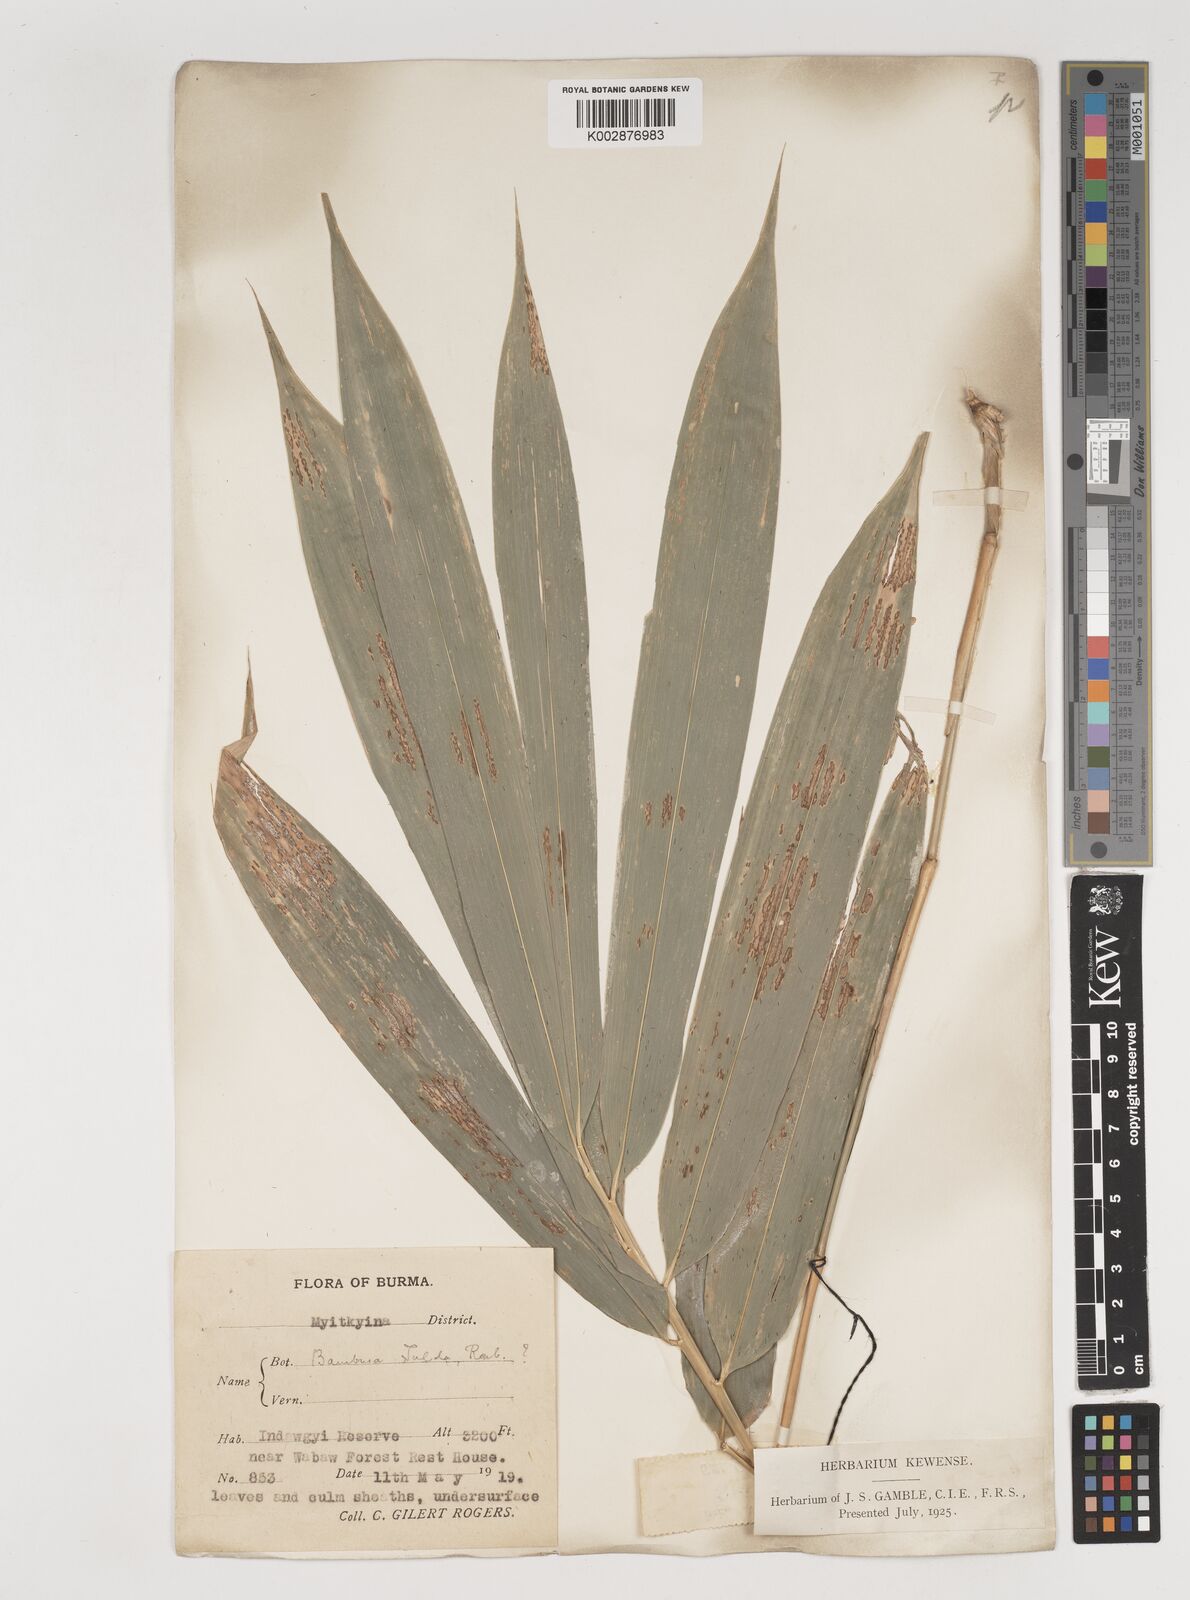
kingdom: Plantae
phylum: Tracheophyta
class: Liliopsida
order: Poales
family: Poaceae
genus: Bambusa
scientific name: Bambusa tulda
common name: Bengal bamboo
